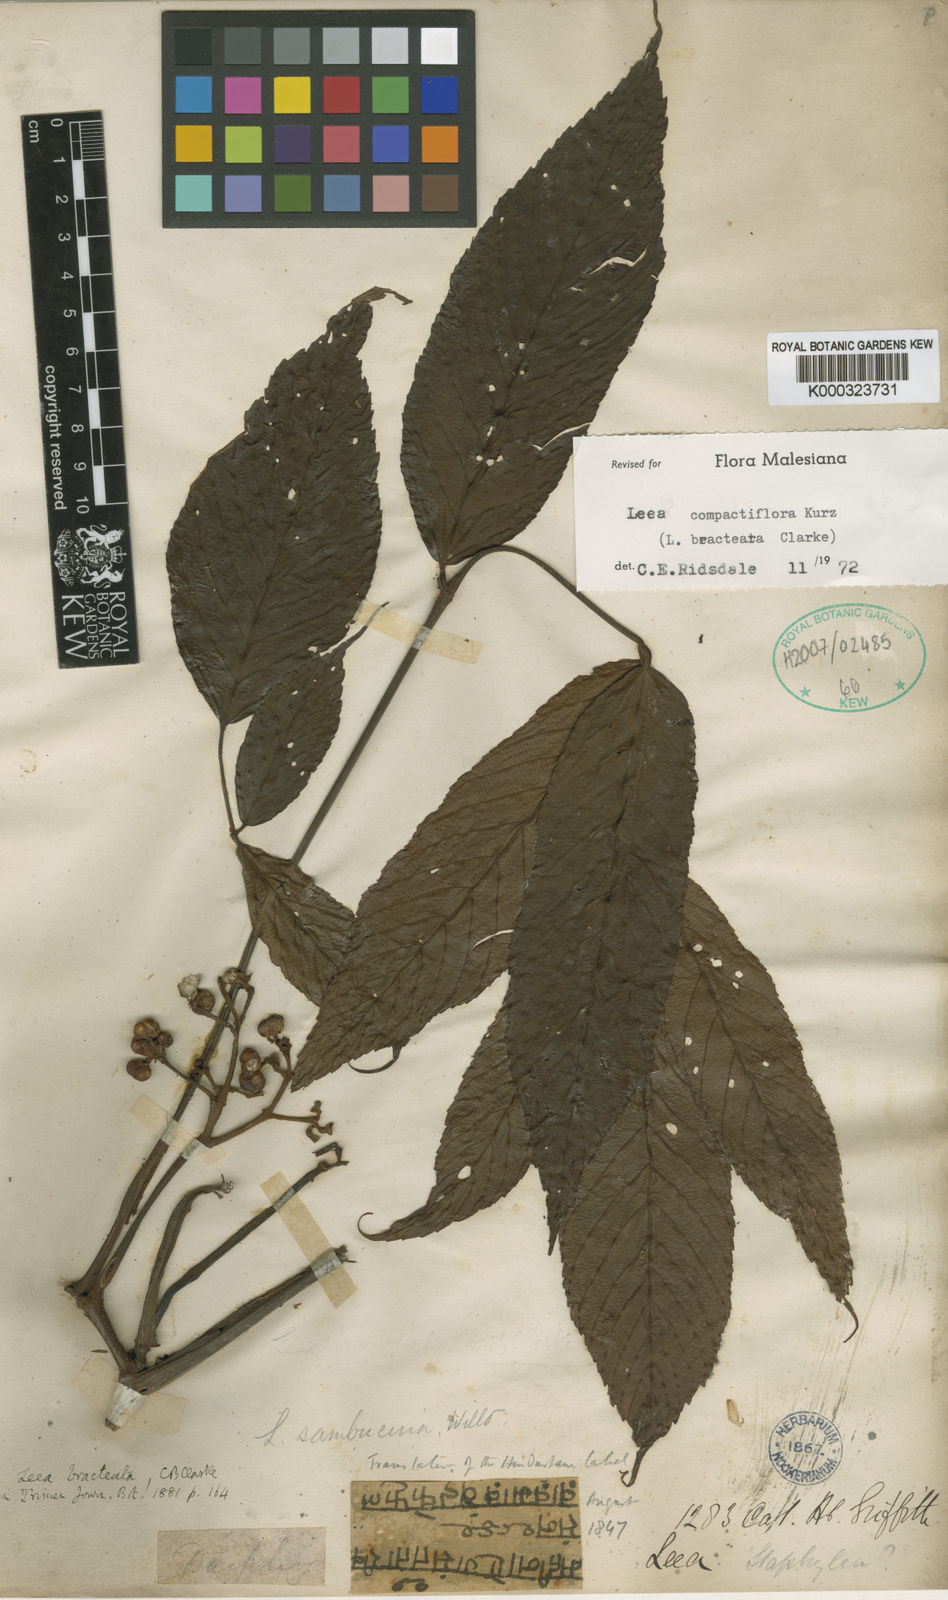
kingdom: Plantae
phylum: Tracheophyta
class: Magnoliopsida
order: Vitales
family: Vitaceae
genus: Leea
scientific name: Leea compactiflora
